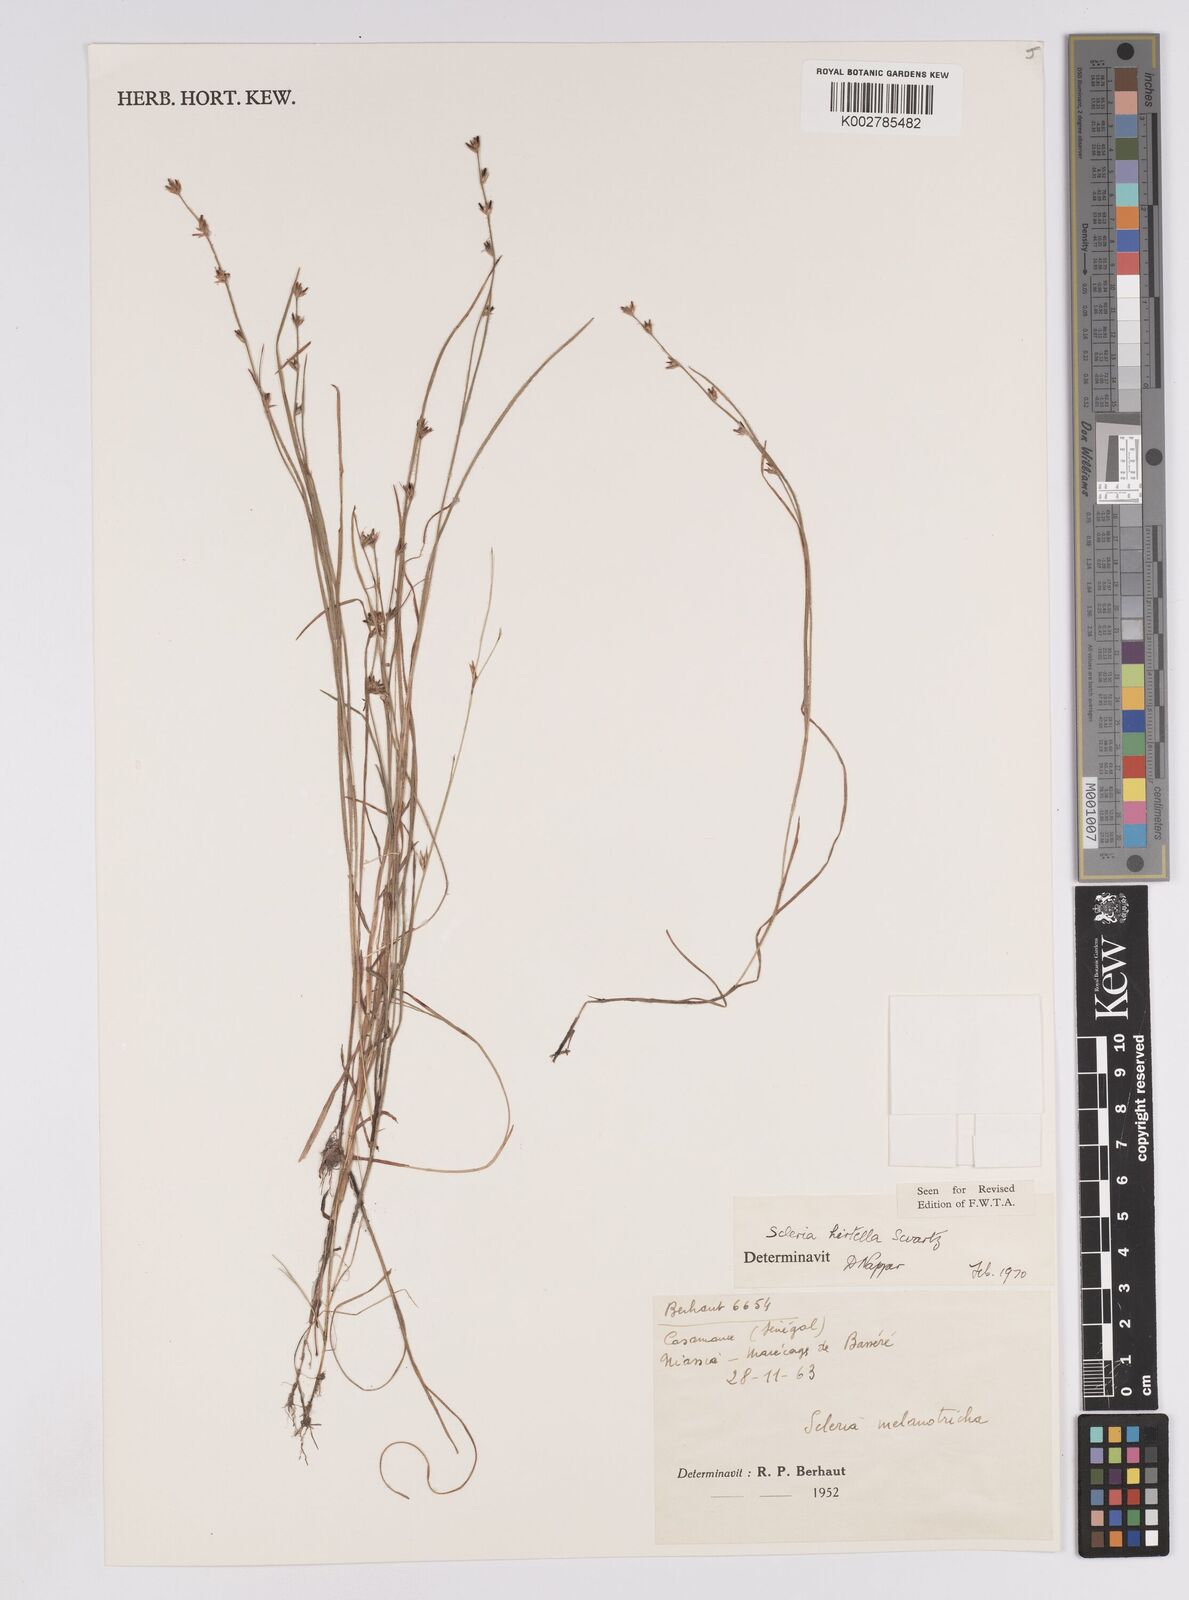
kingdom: Plantae
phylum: Tracheophyta
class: Liliopsida
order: Poales
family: Cyperaceae
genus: Scleria
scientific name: Scleria tricholepis
